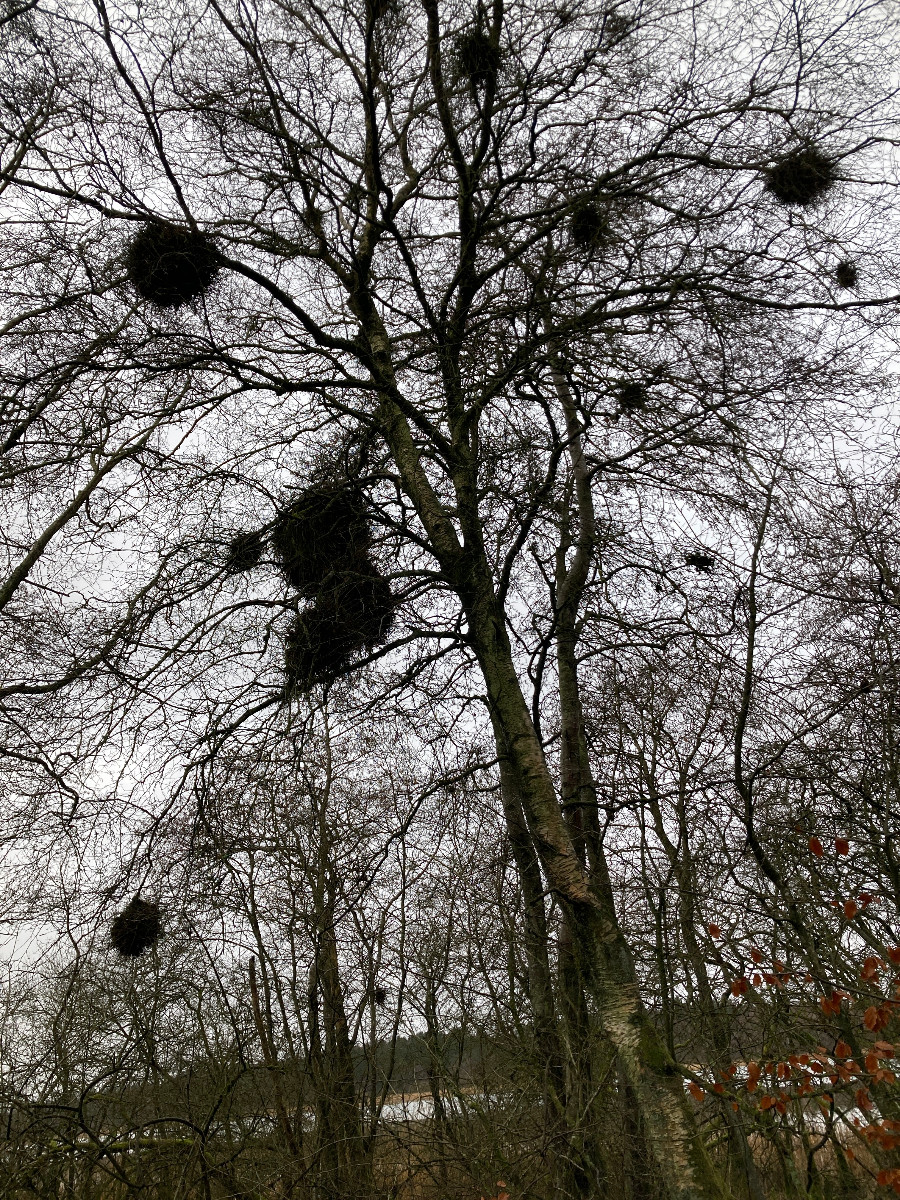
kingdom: Fungi
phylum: Ascomycota
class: Taphrinomycetes
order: Taphrinales
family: Taphrinaceae
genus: Taphrina
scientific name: Taphrina betulina
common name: hekse-sækdug
